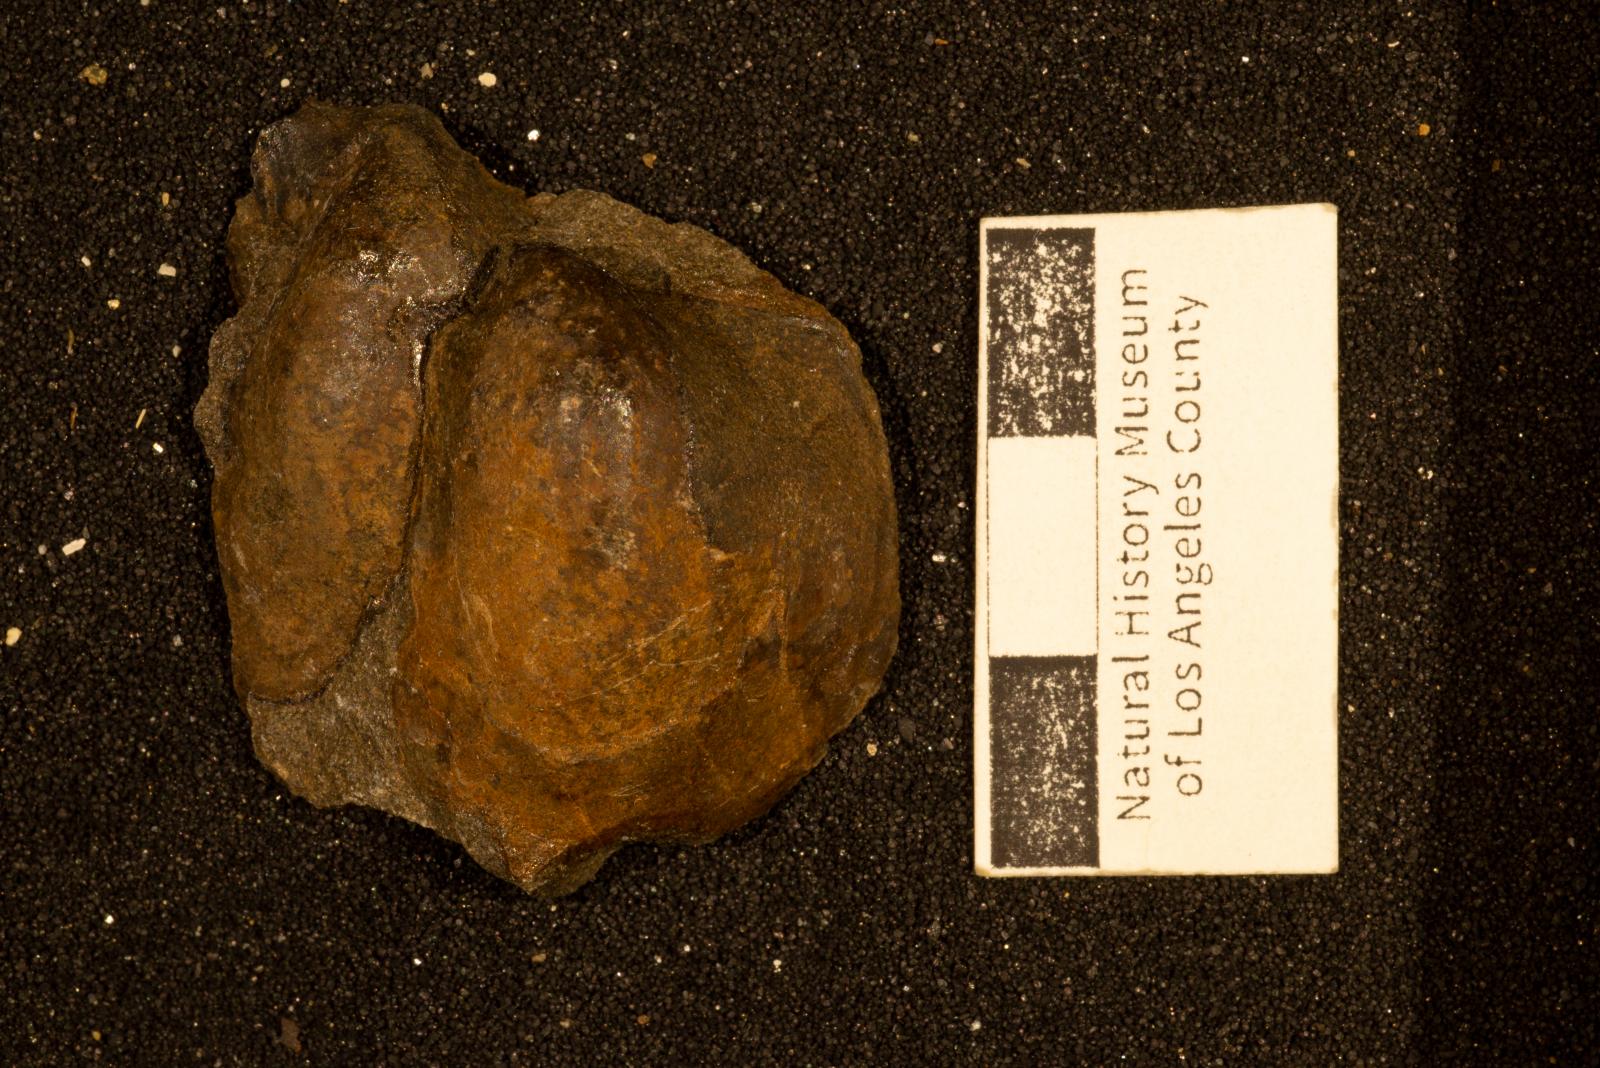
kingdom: Animalia
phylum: Mollusca
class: Bivalvia
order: Ostreida
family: Pteriidae
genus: Pteria
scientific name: Pteria pellucida
